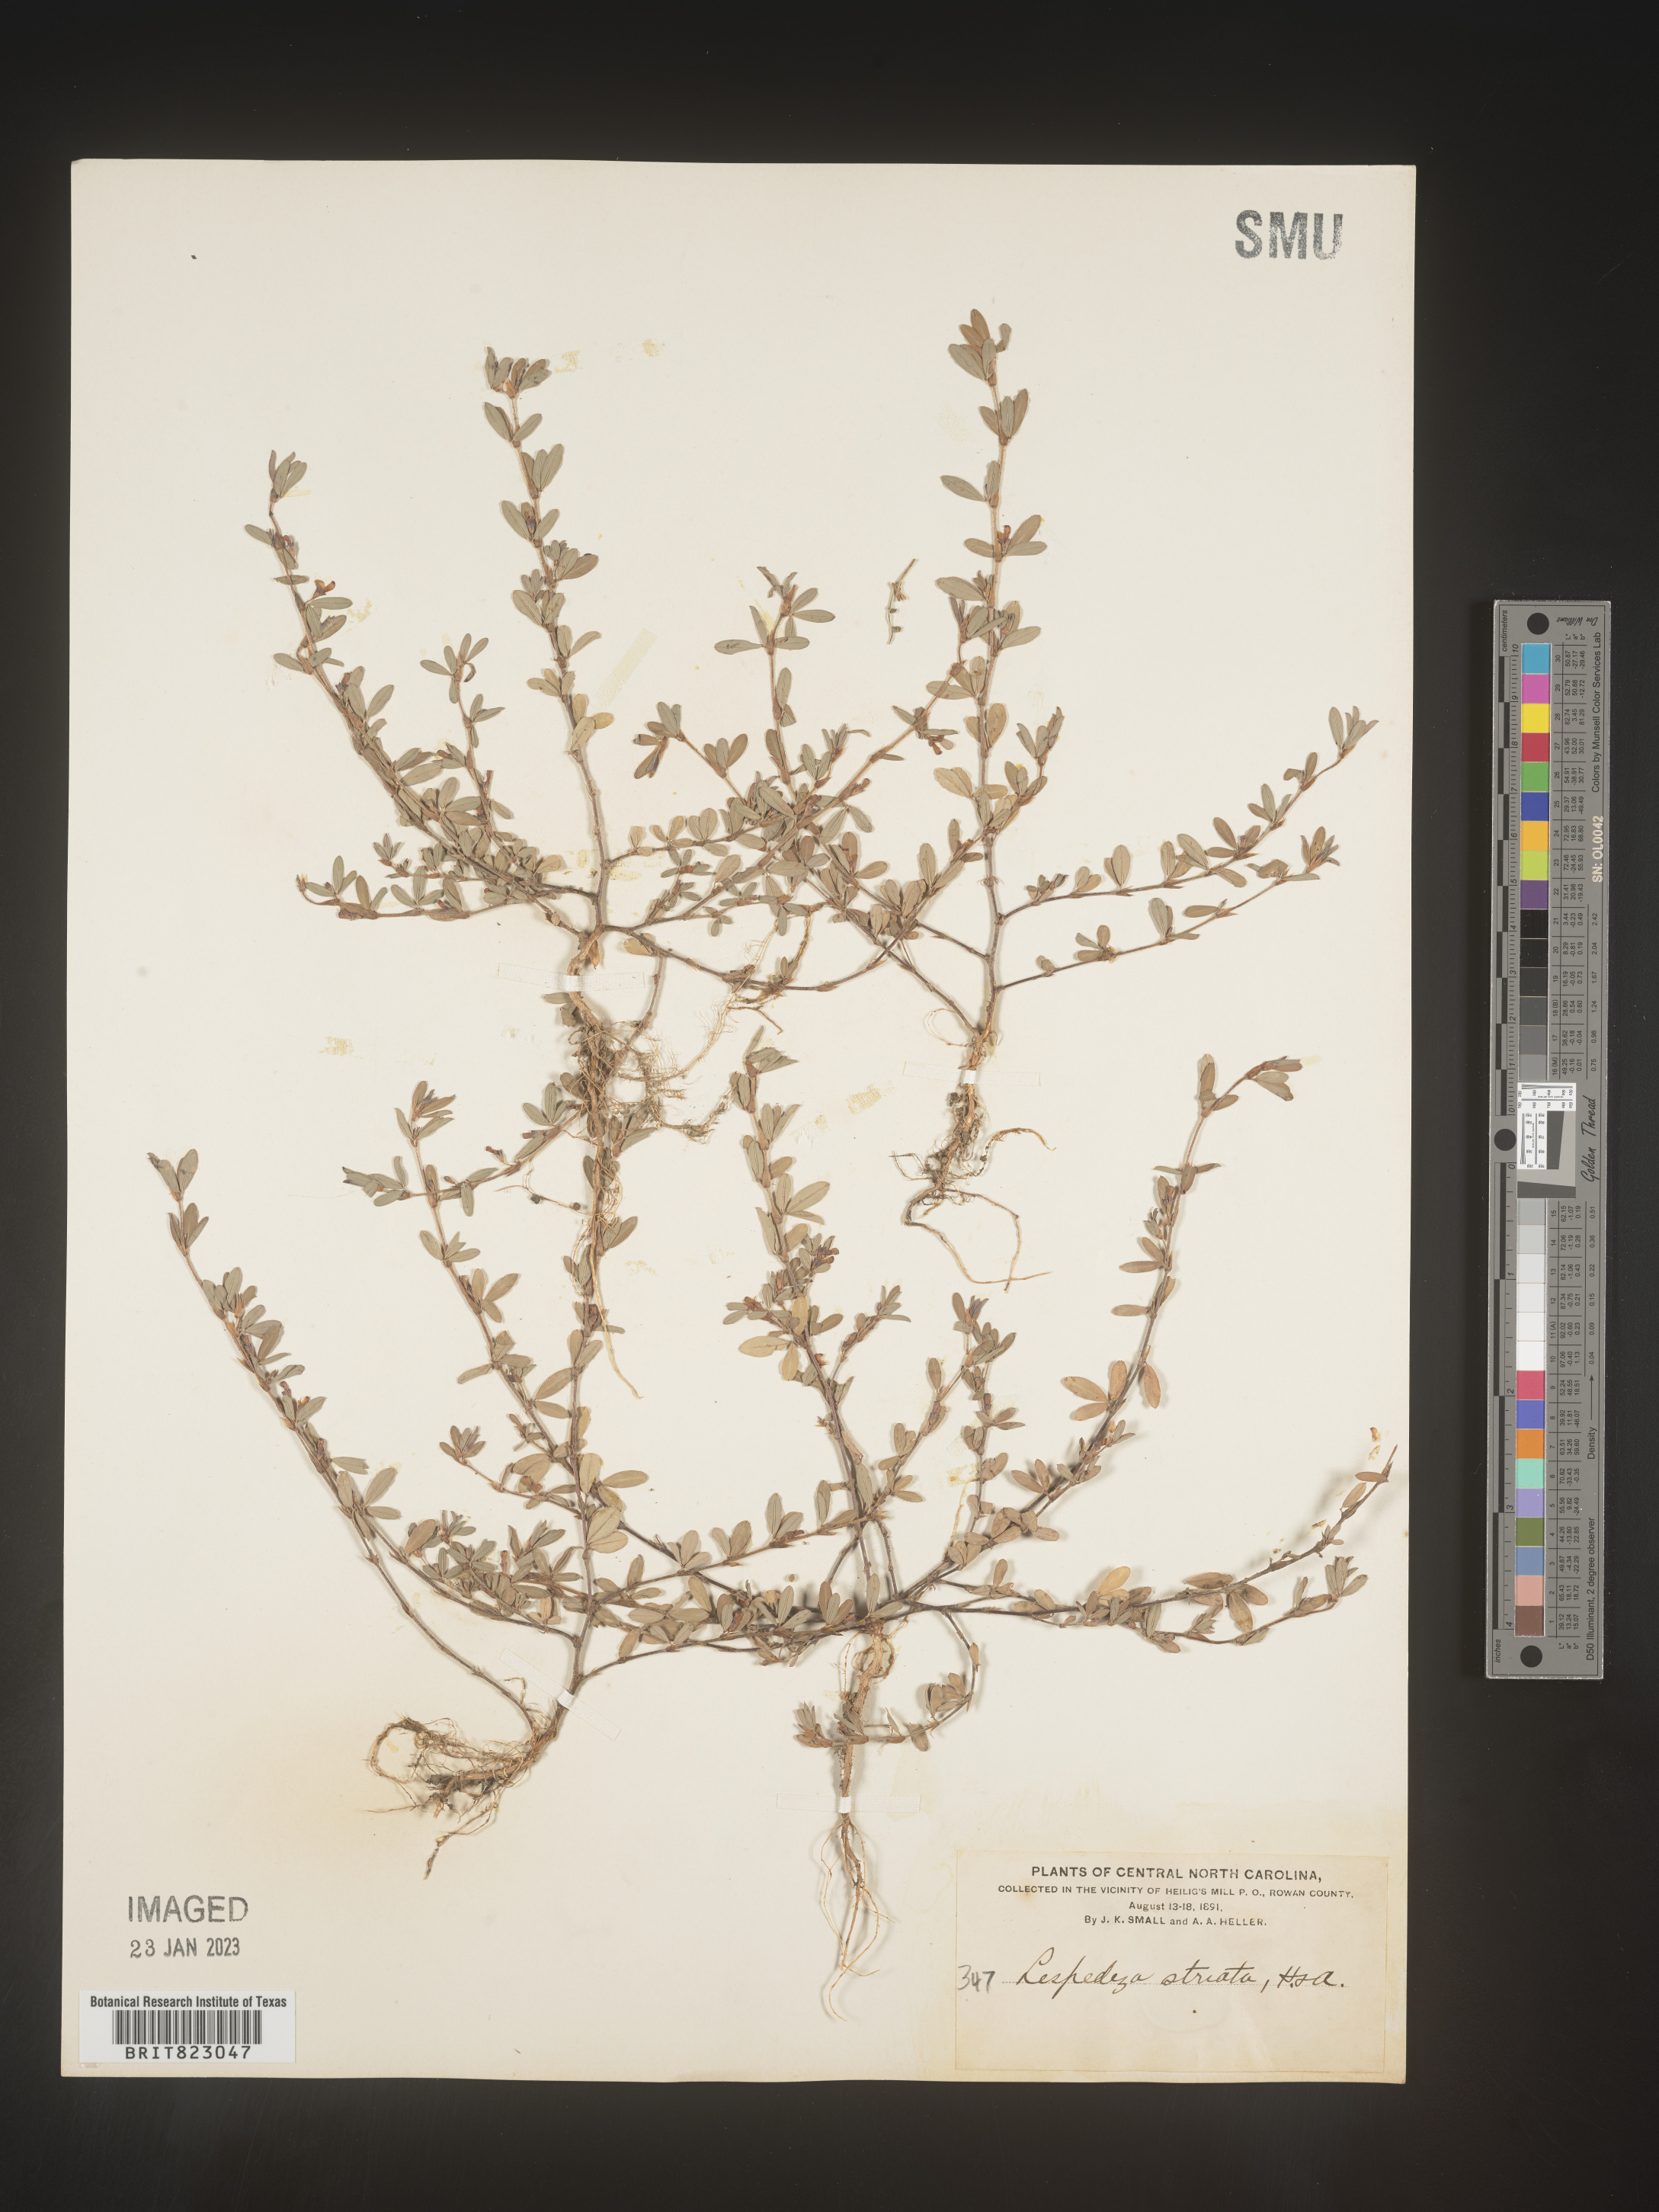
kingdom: Plantae
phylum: Tracheophyta
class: Magnoliopsida
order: Fabales
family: Fabaceae
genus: Kummerowia
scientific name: Kummerowia striata
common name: Japanese clover
